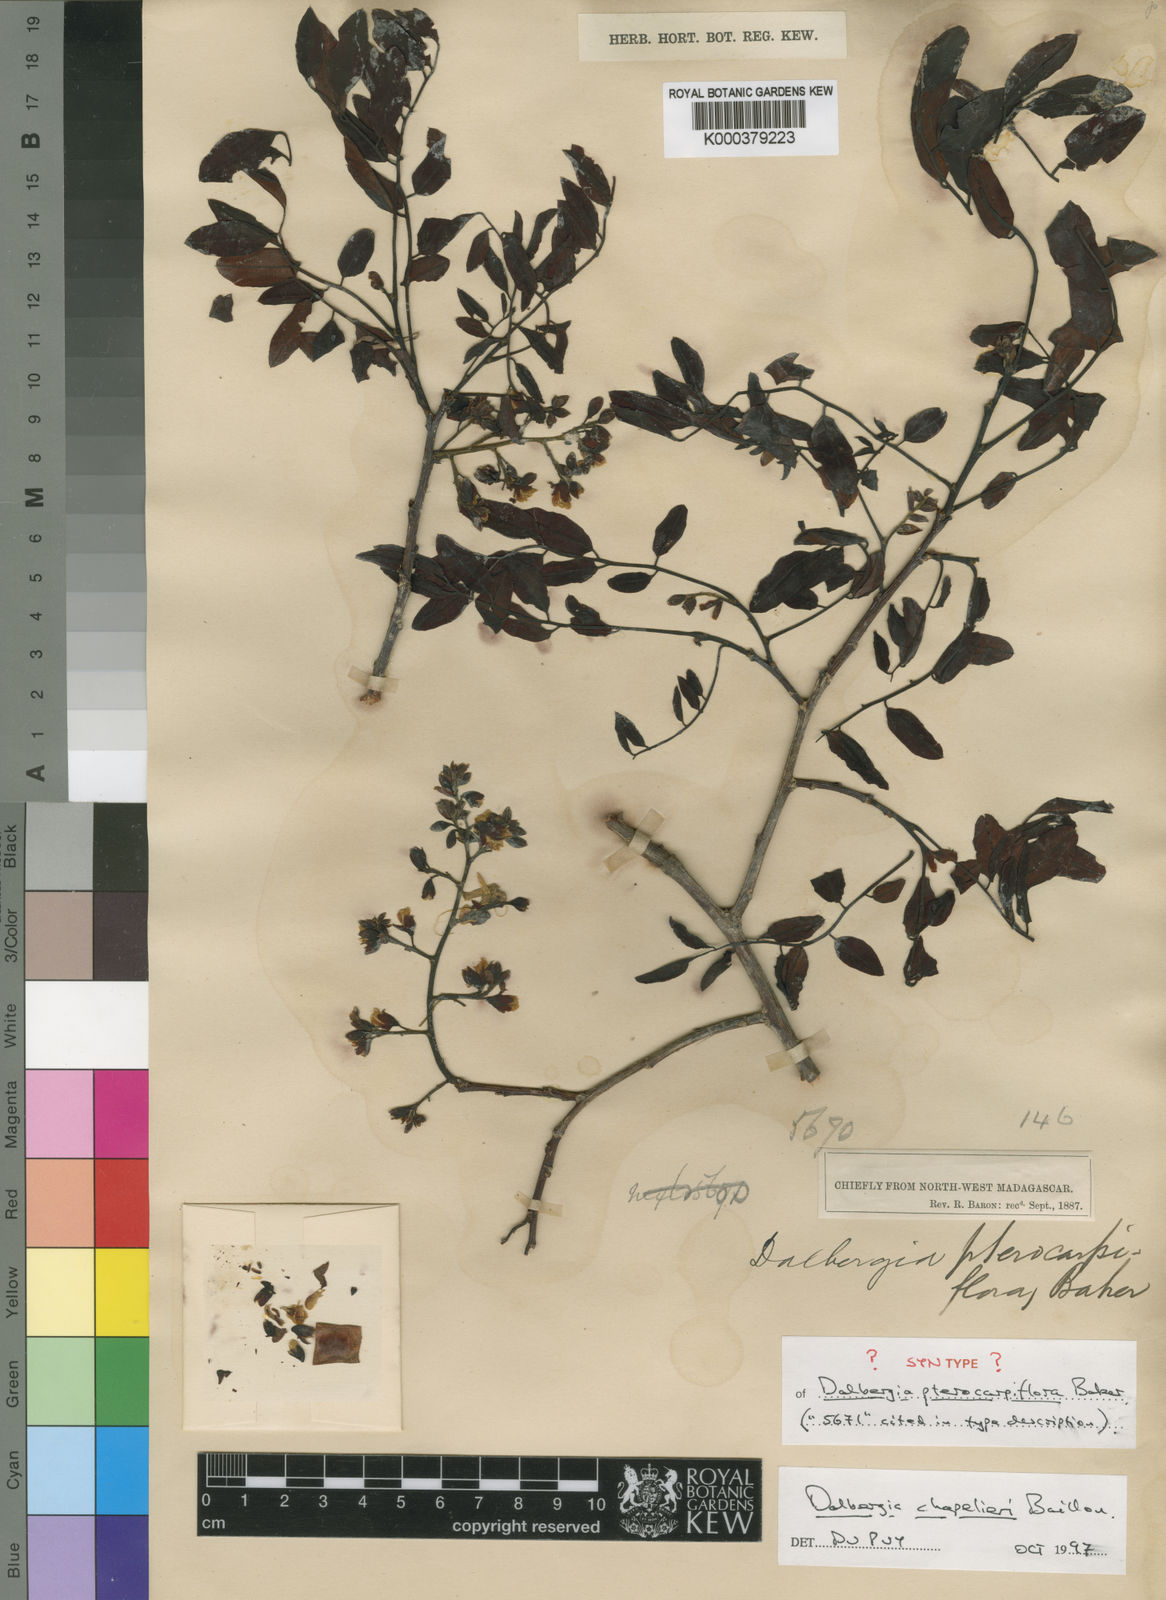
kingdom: Plantae
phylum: Tracheophyta
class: Magnoliopsida
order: Fabales
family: Fabaceae
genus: Dalbergia
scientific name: Dalbergia chapelieri
